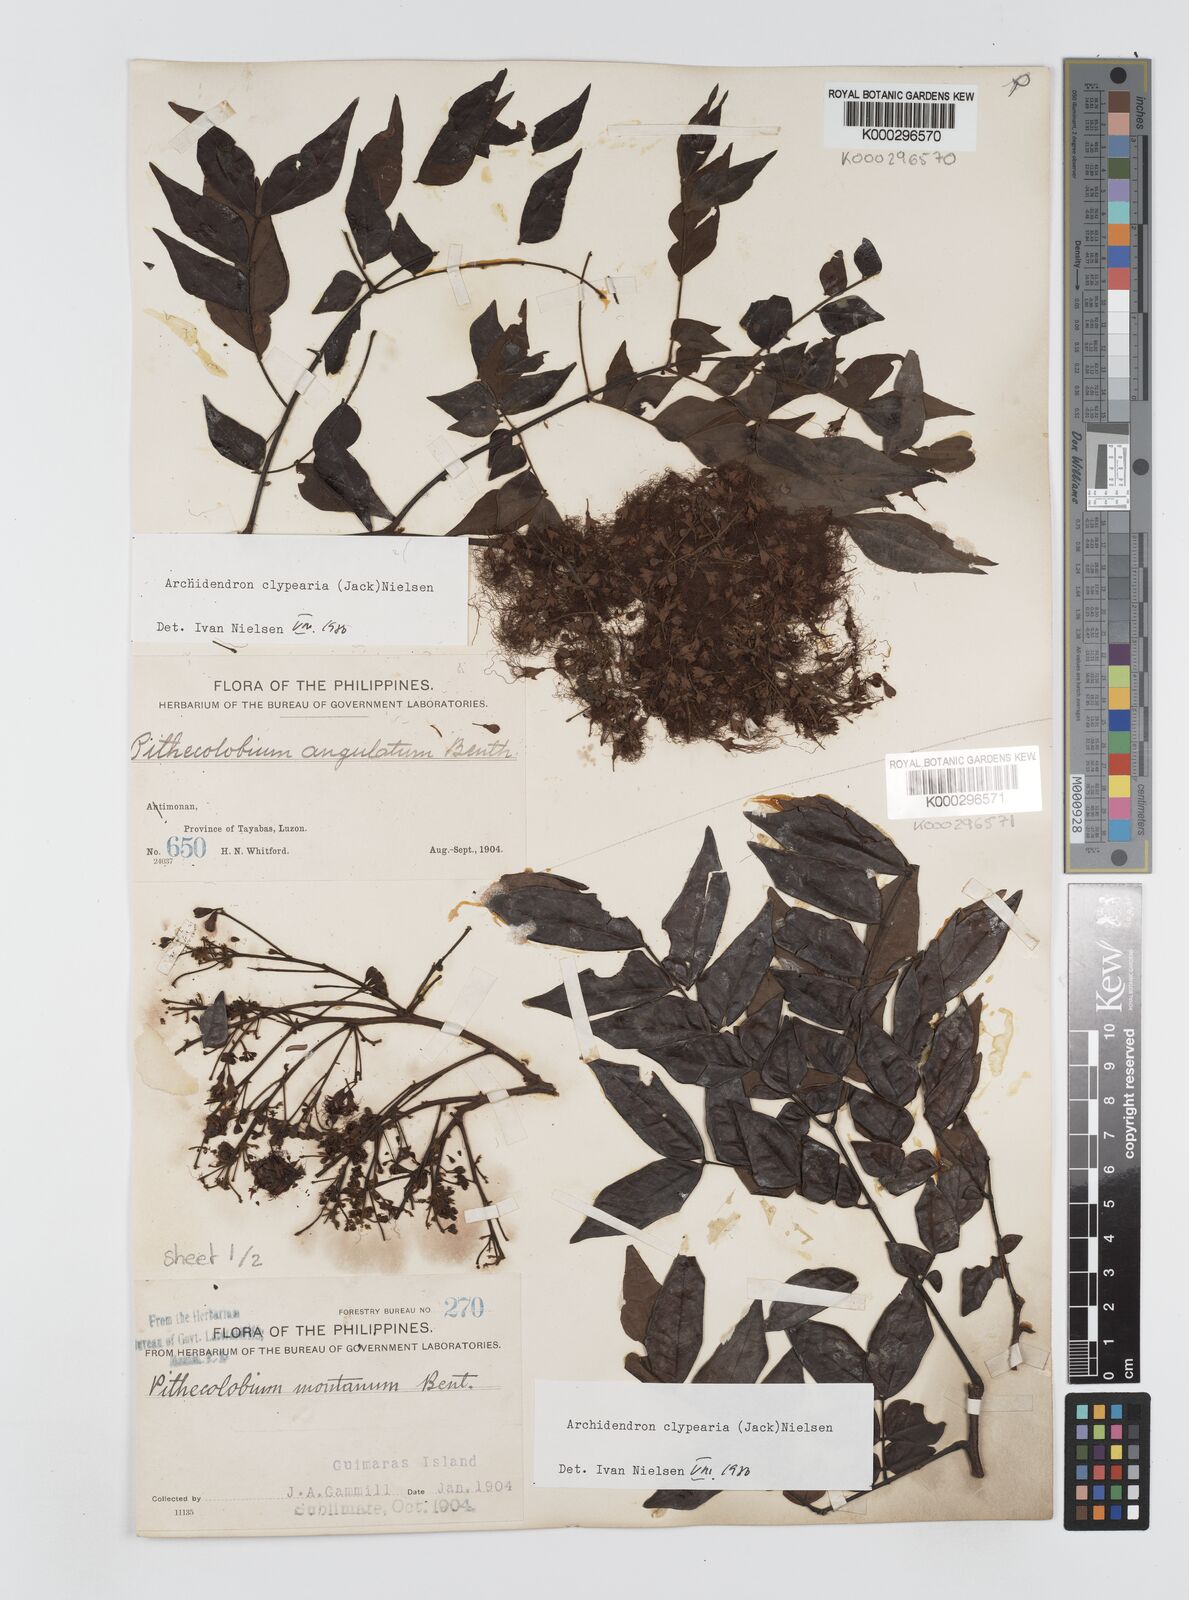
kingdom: Plantae
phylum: Tracheophyta
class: Magnoliopsida
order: Fabales
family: Fabaceae
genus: Archidendron
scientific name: Archidendron clypearia
